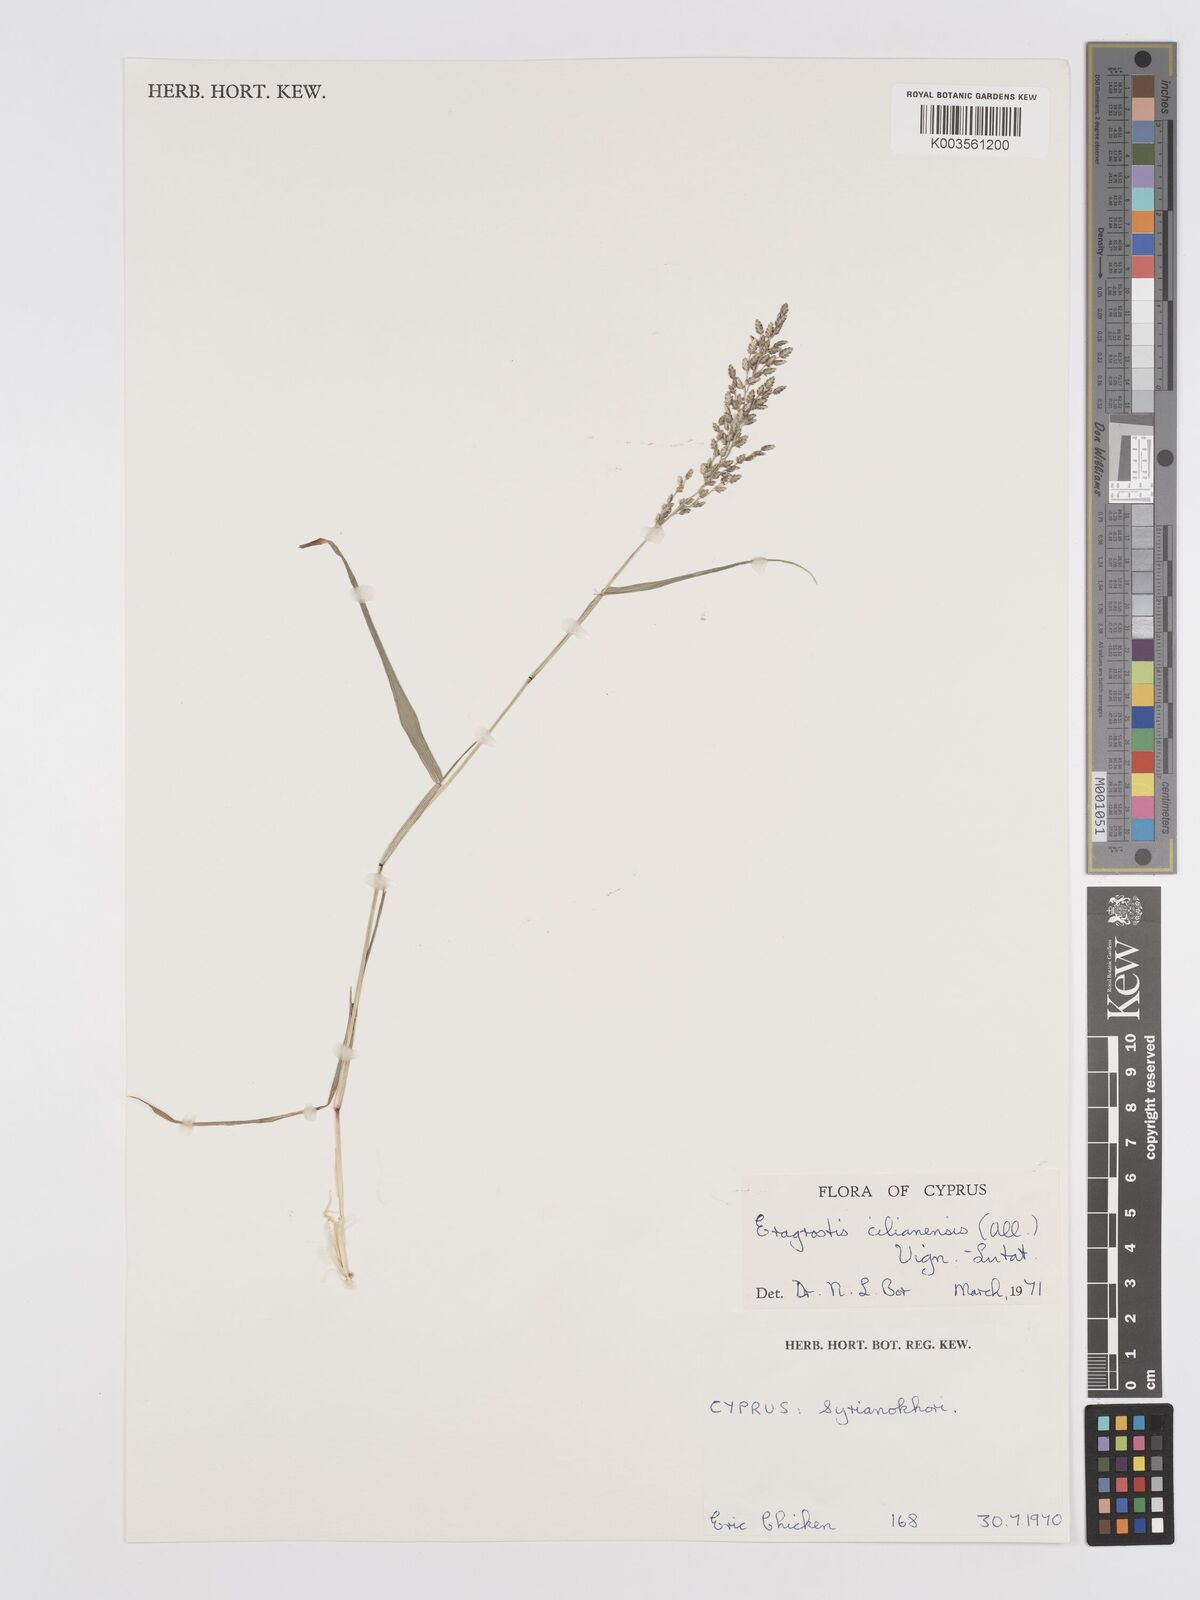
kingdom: Plantae
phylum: Tracheophyta
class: Liliopsida
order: Poales
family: Poaceae
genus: Eragrostis
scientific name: Eragrostis cilianensis
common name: Stinkgrass
